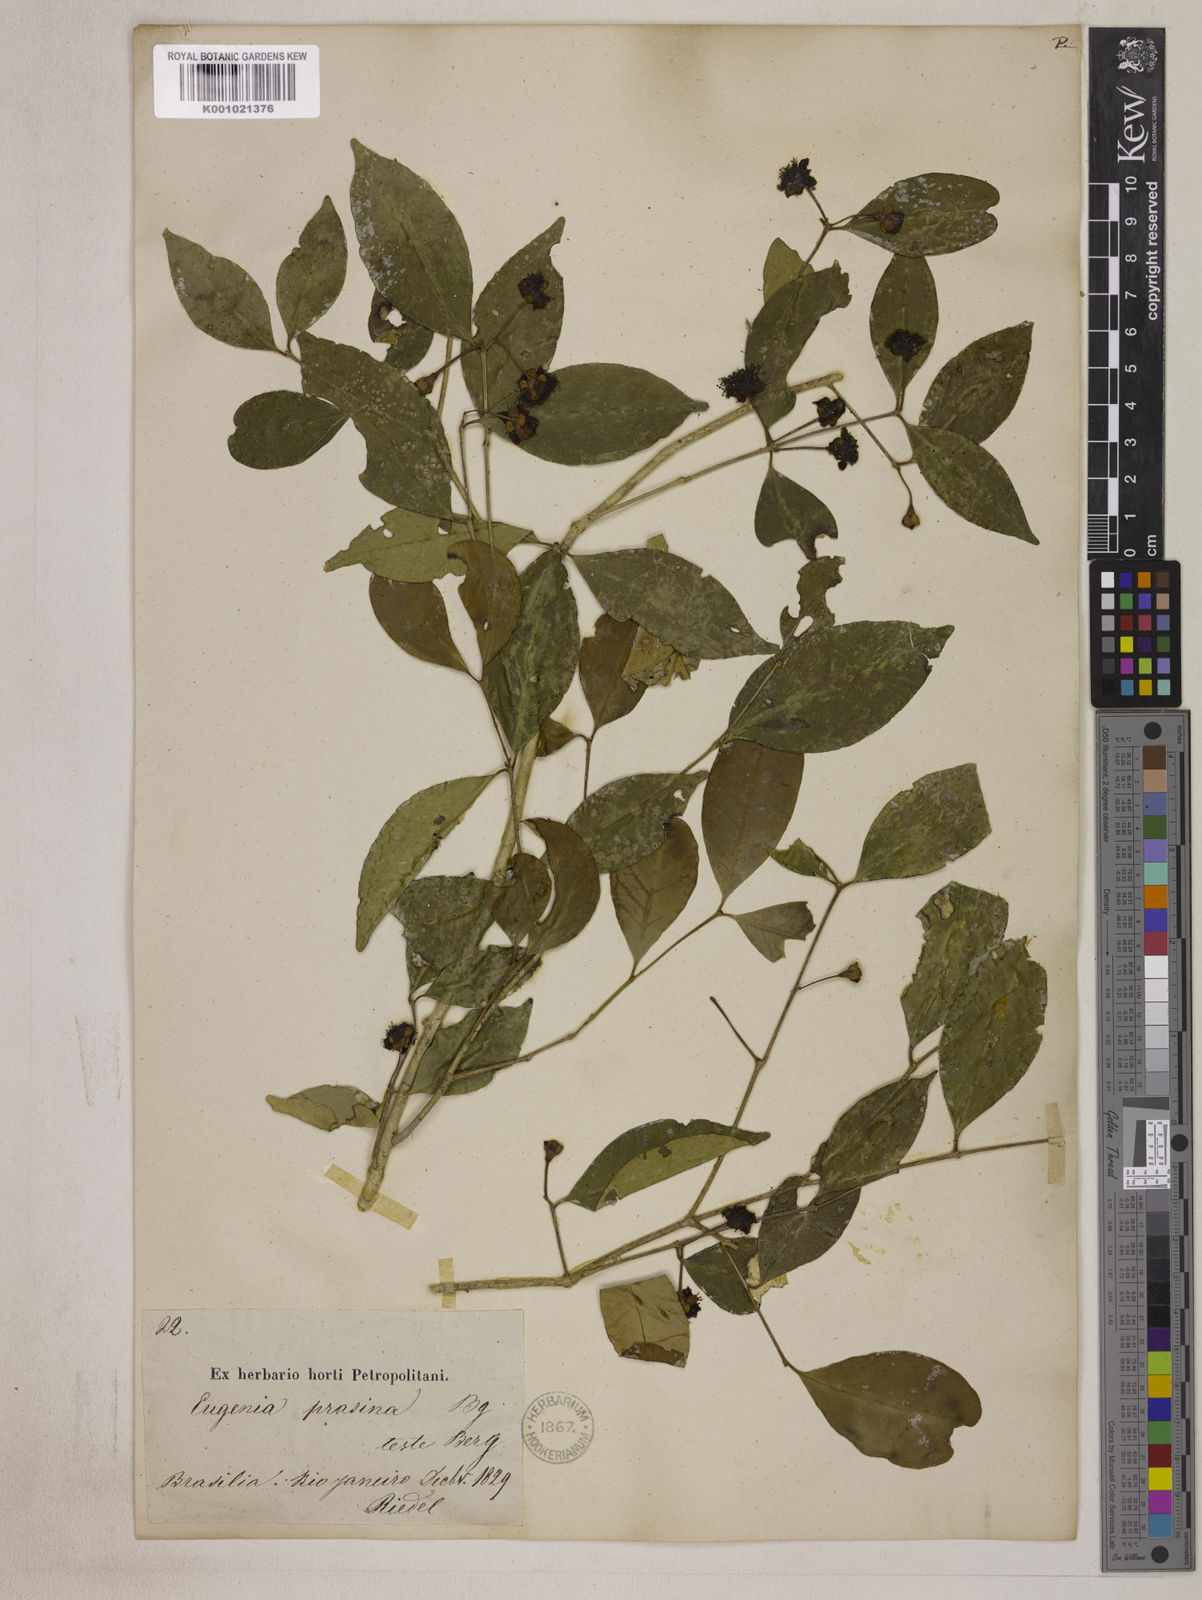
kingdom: Plantae
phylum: Tracheophyta
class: Magnoliopsida
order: Myrtales
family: Myrtaceae
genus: Eugenia
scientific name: Eugenia prasina
